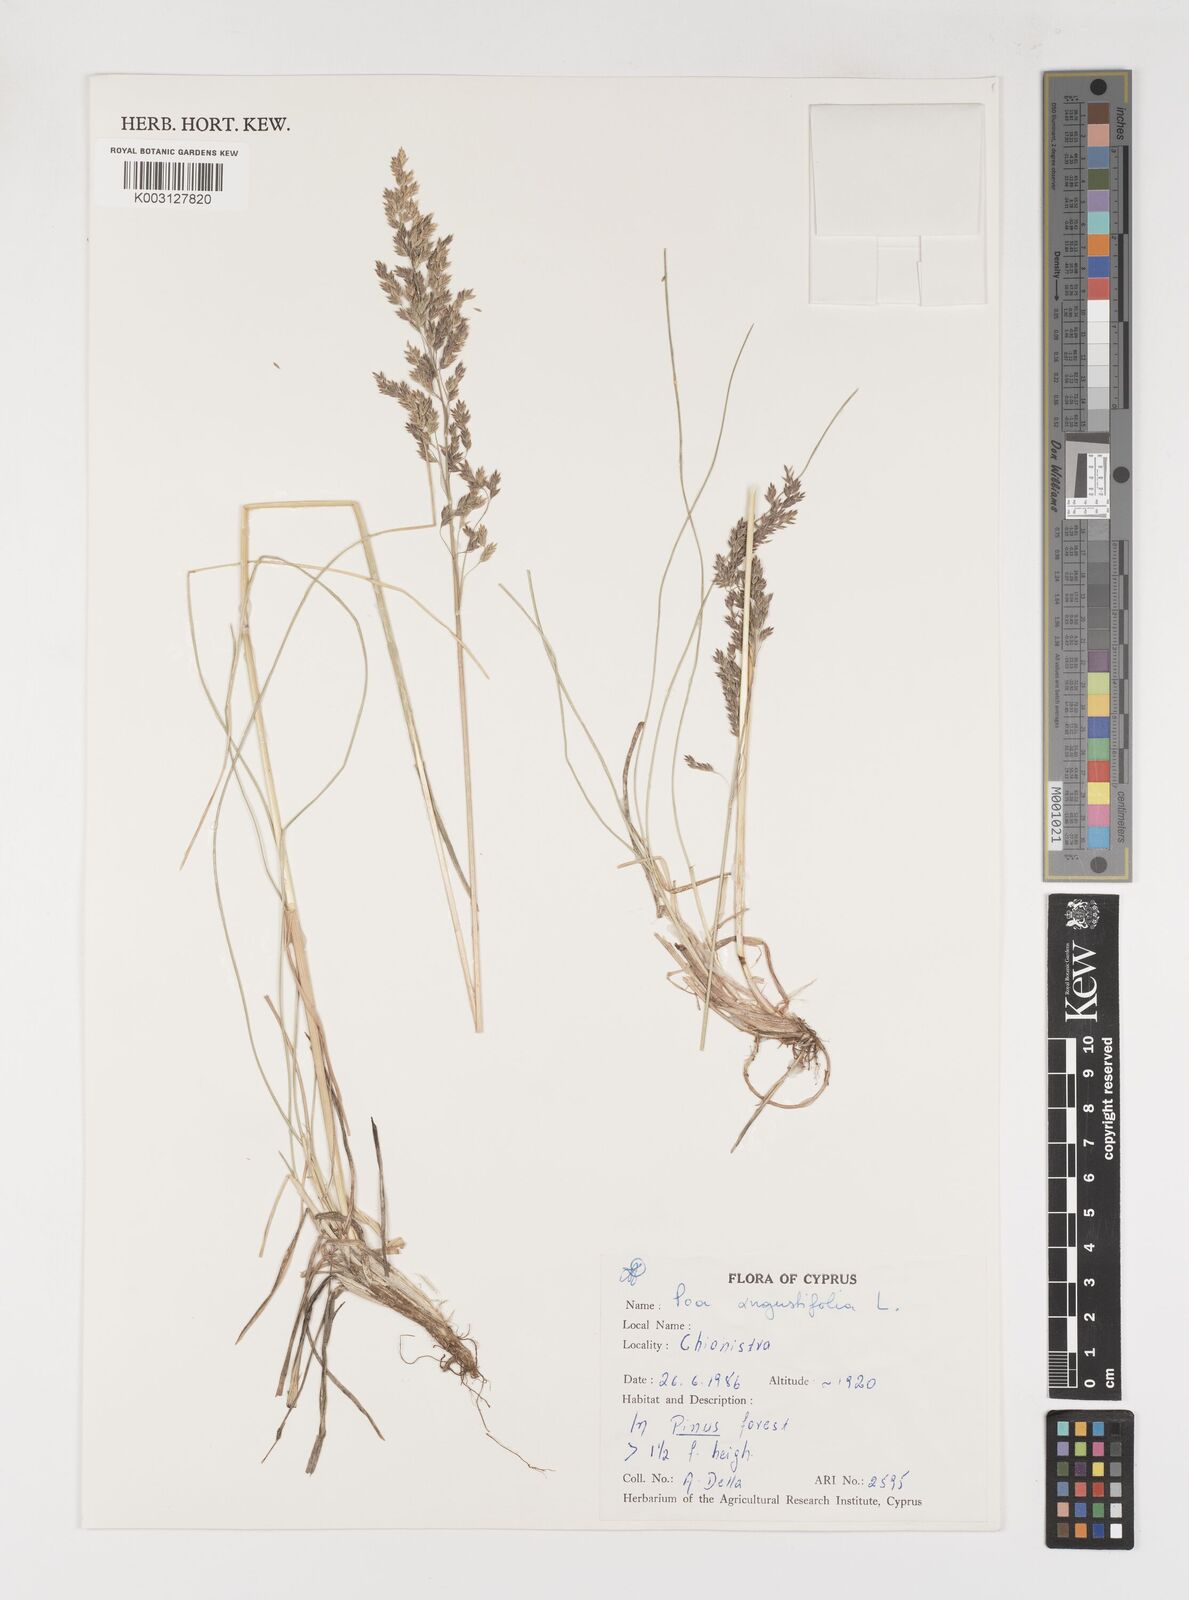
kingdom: Plantae
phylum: Tracheophyta
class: Liliopsida
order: Poales
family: Poaceae
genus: Poa
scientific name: Poa angustifolia
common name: Narrow-leaved meadow-grass
